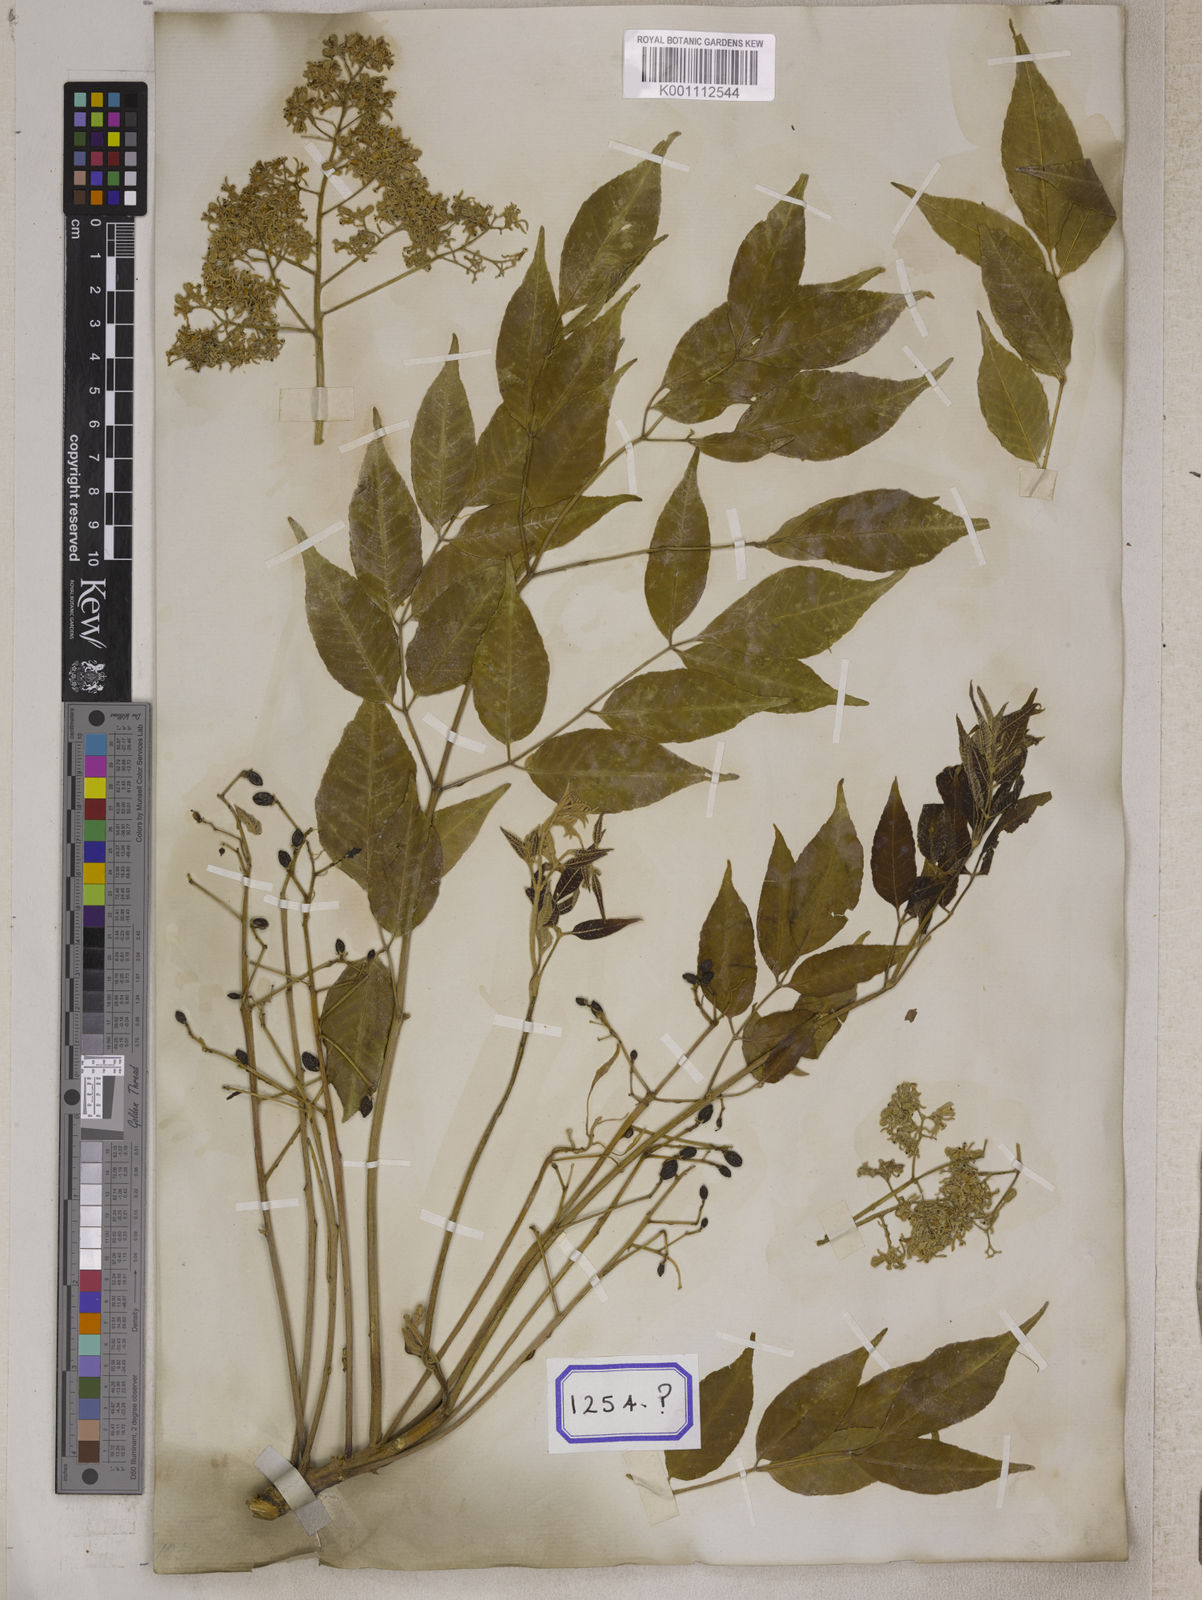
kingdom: Plantae
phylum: Tracheophyta
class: Magnoliopsida
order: Sapindales
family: Meliaceae
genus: Melia
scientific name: Melia azedarach
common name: Chinaberrytree
